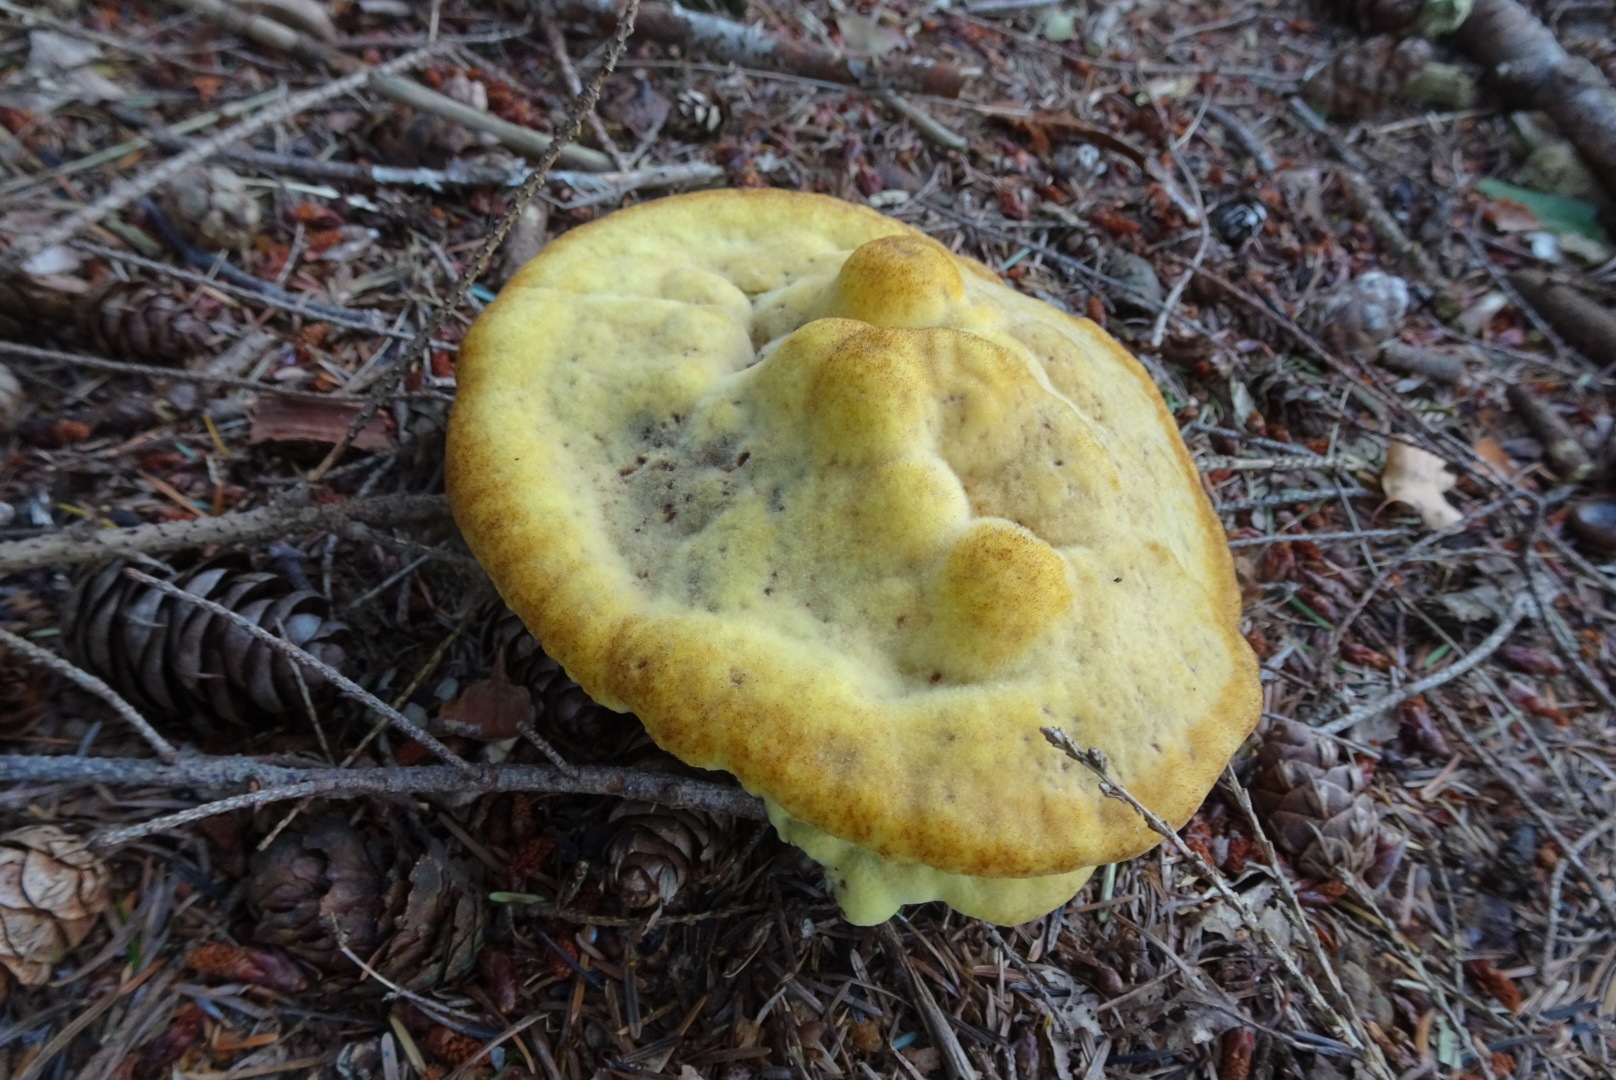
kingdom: Fungi
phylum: Basidiomycota
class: Agaricomycetes
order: Polyporales
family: Laetiporaceae
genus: Phaeolus
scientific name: Phaeolus schweinitzii
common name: brunporesvamp
